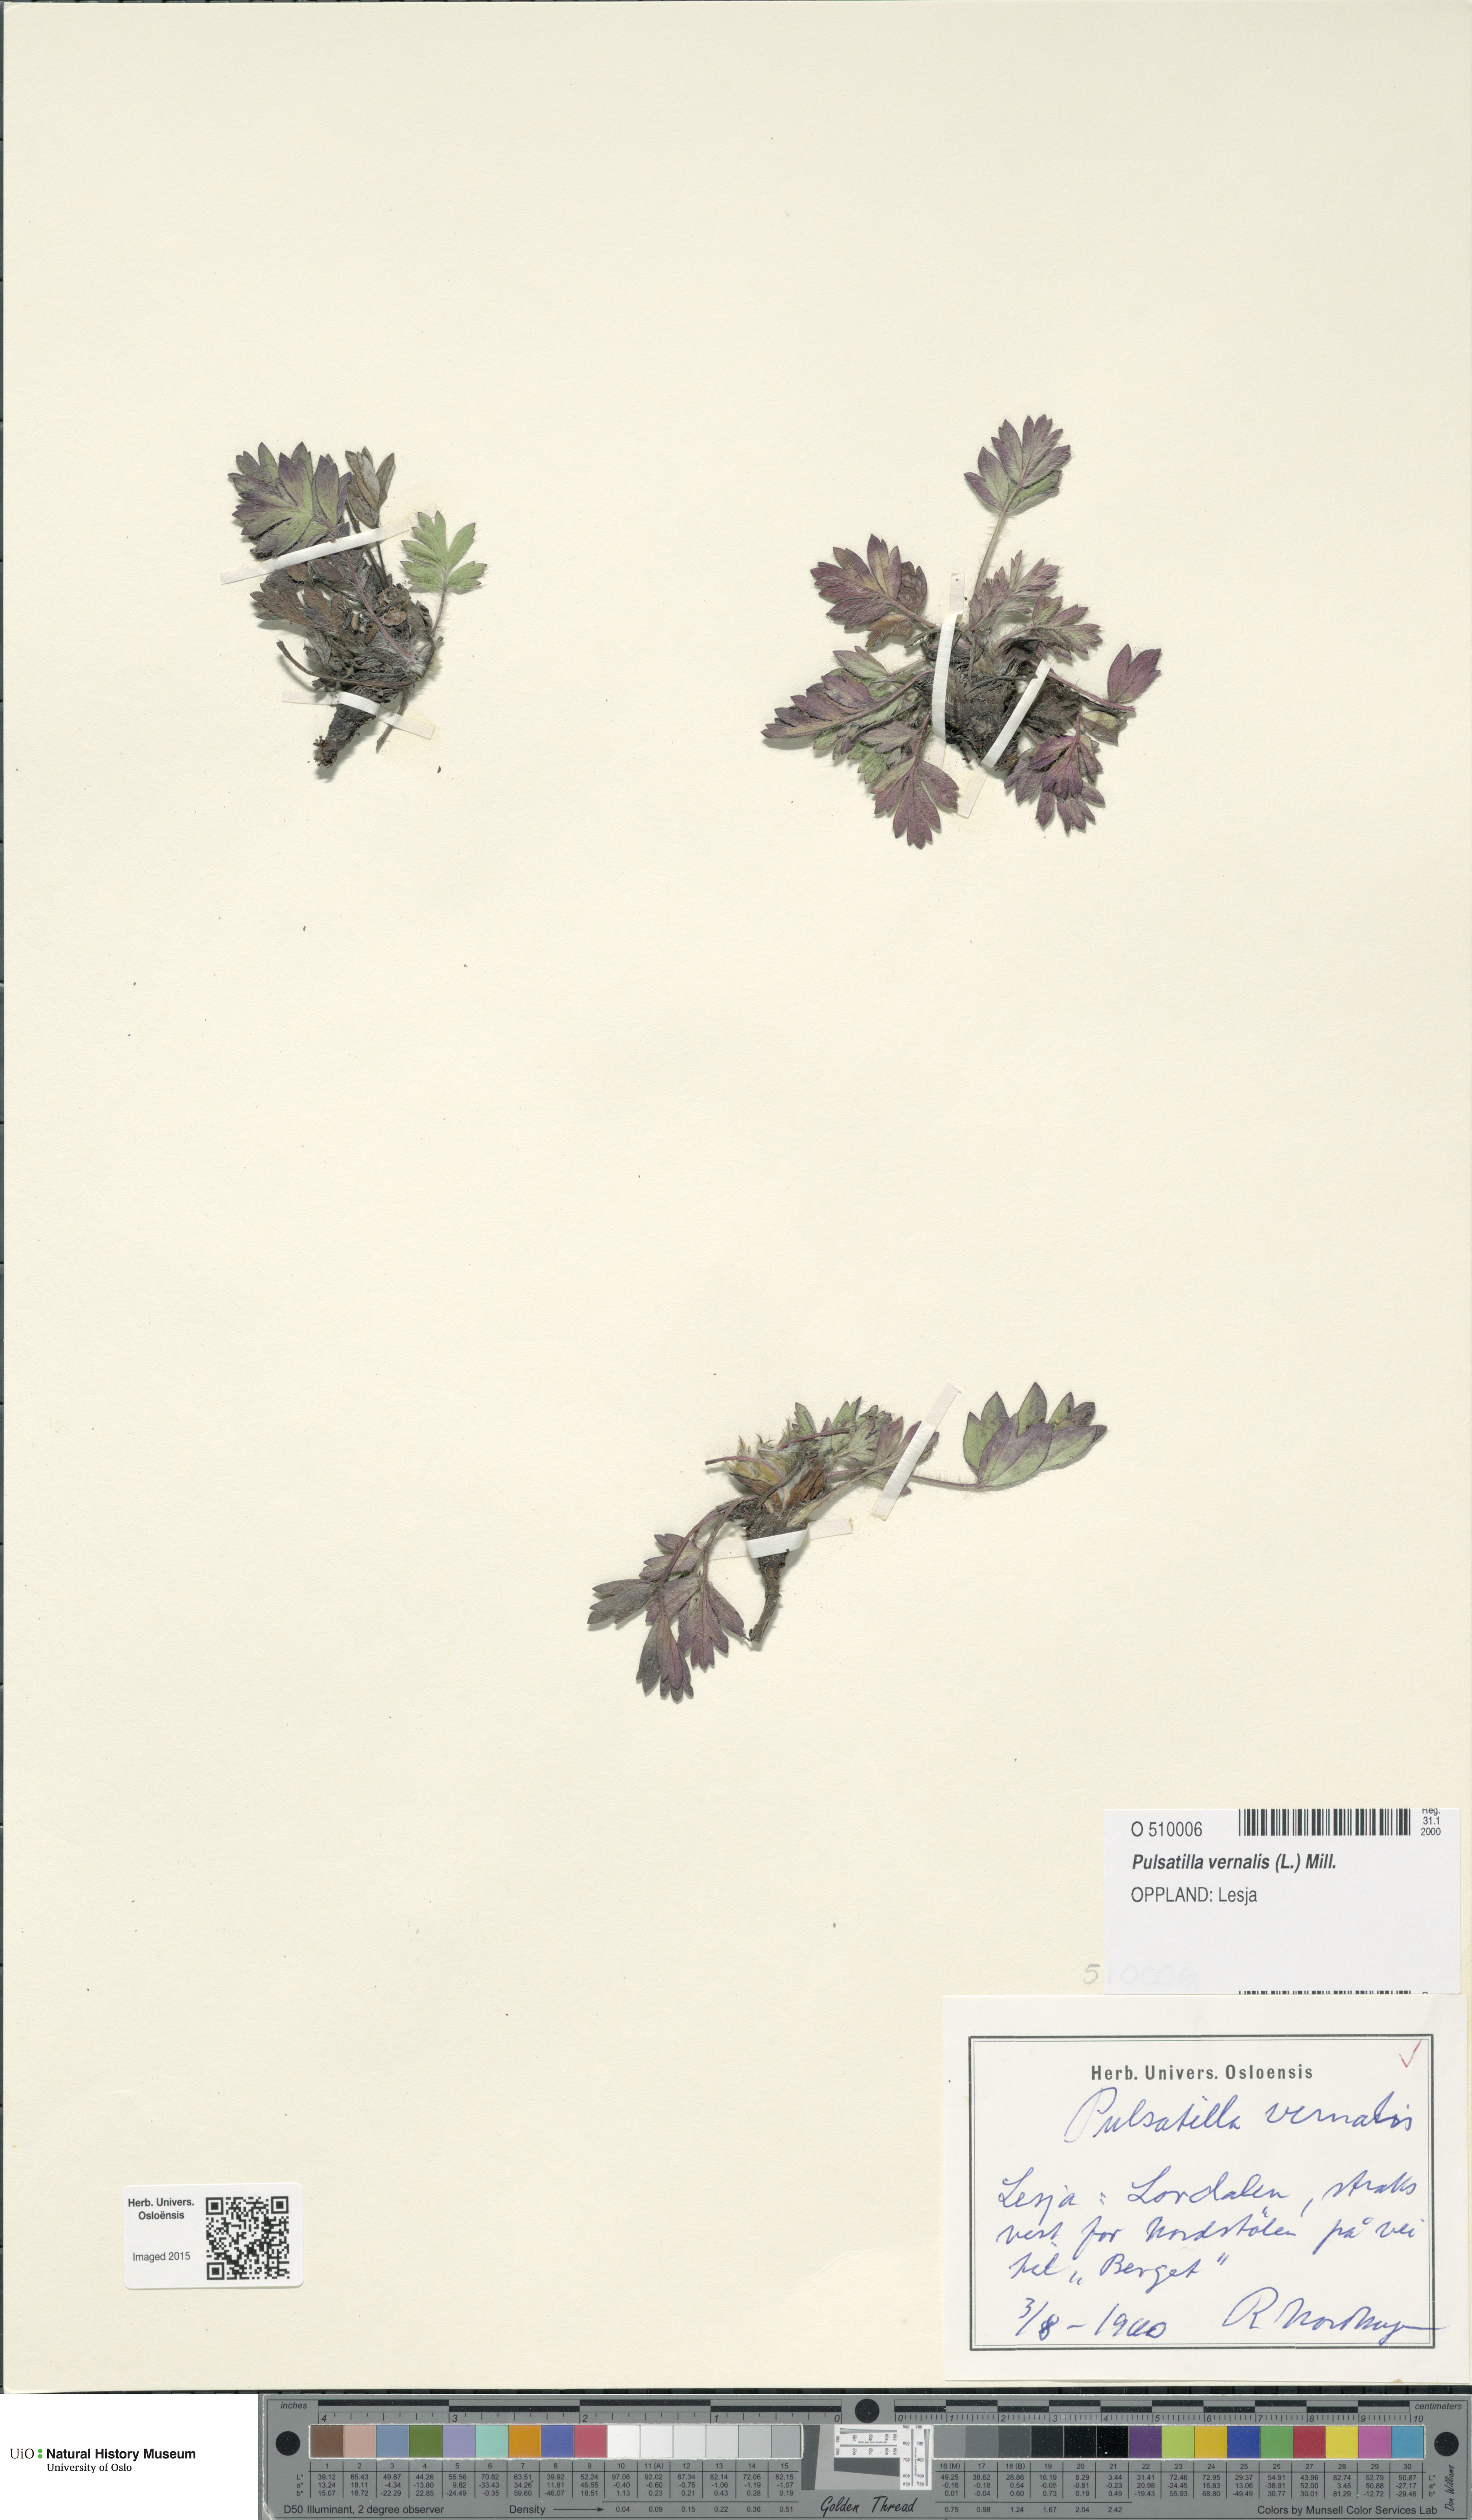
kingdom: Plantae
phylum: Tracheophyta
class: Magnoliopsida
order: Ranunculales
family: Ranunculaceae
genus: Pulsatilla
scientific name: Pulsatilla vernalis
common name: Spring pasque flower
